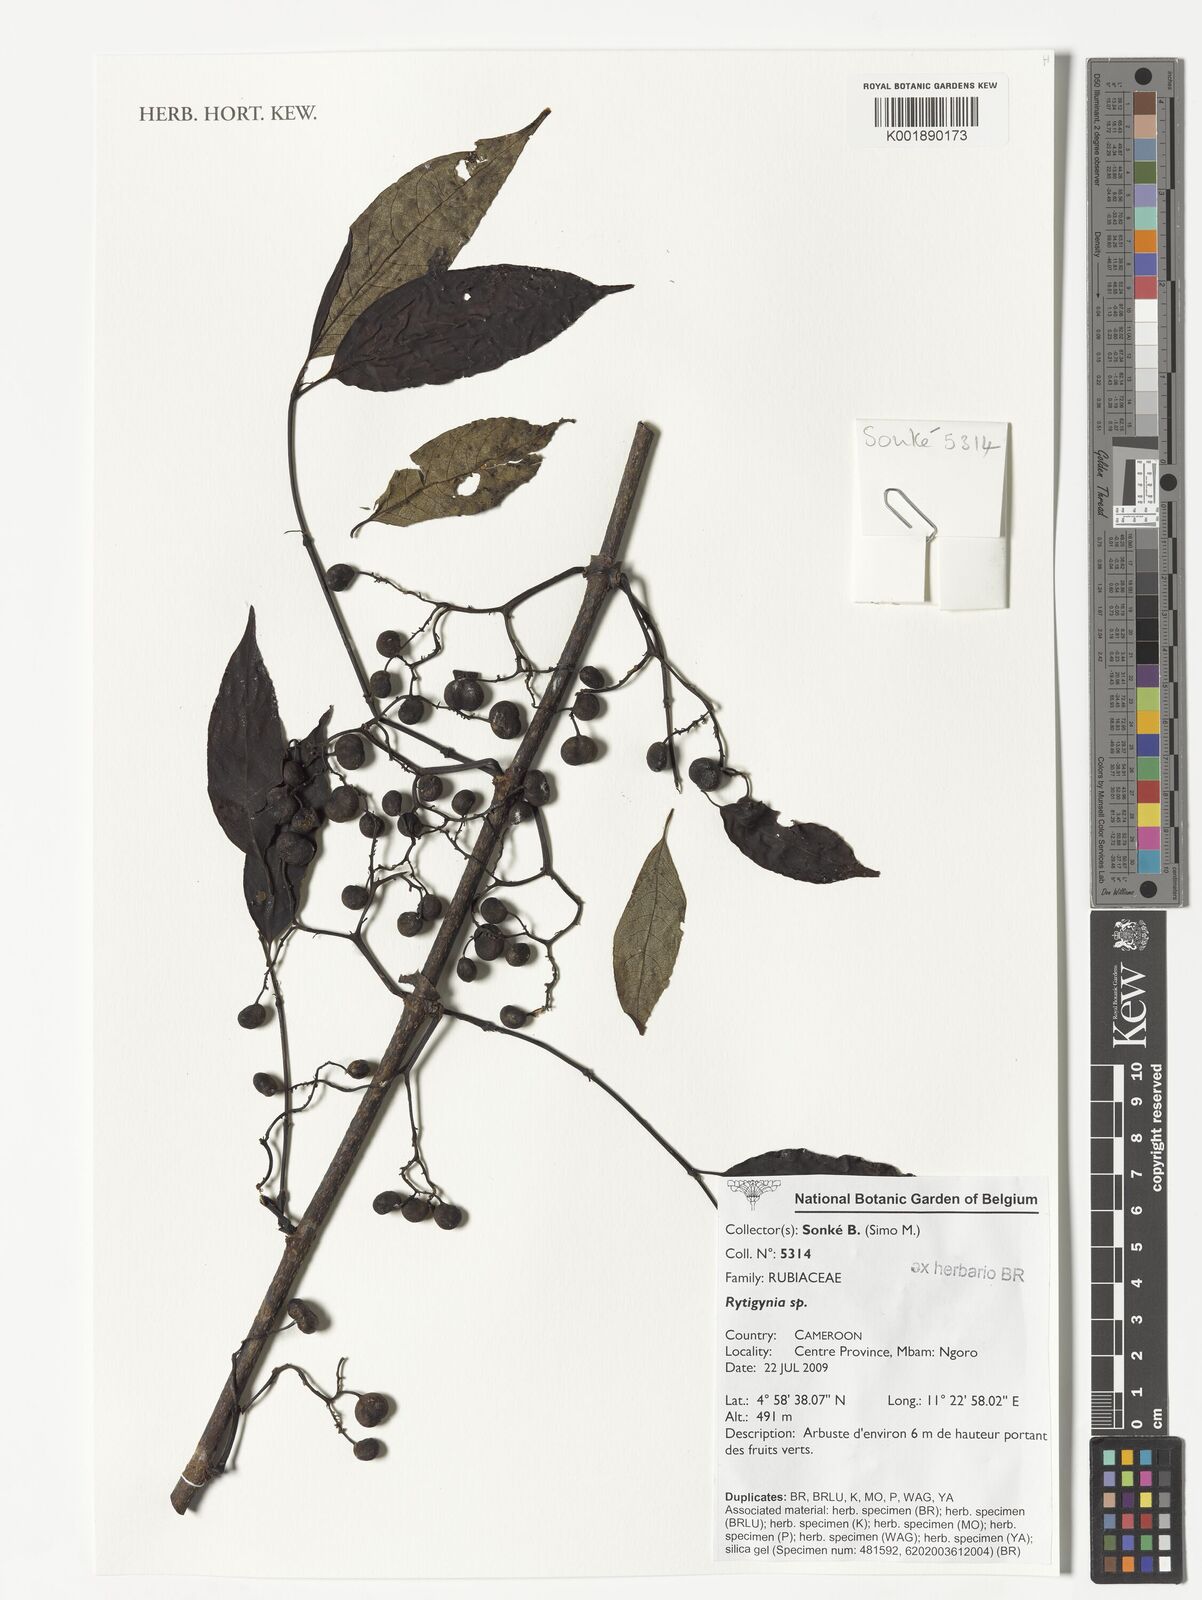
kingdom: Plantae
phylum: Tracheophyta
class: Magnoliopsida
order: Gentianales
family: Rubiaceae
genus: Rytigynia
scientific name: Rytigynia
